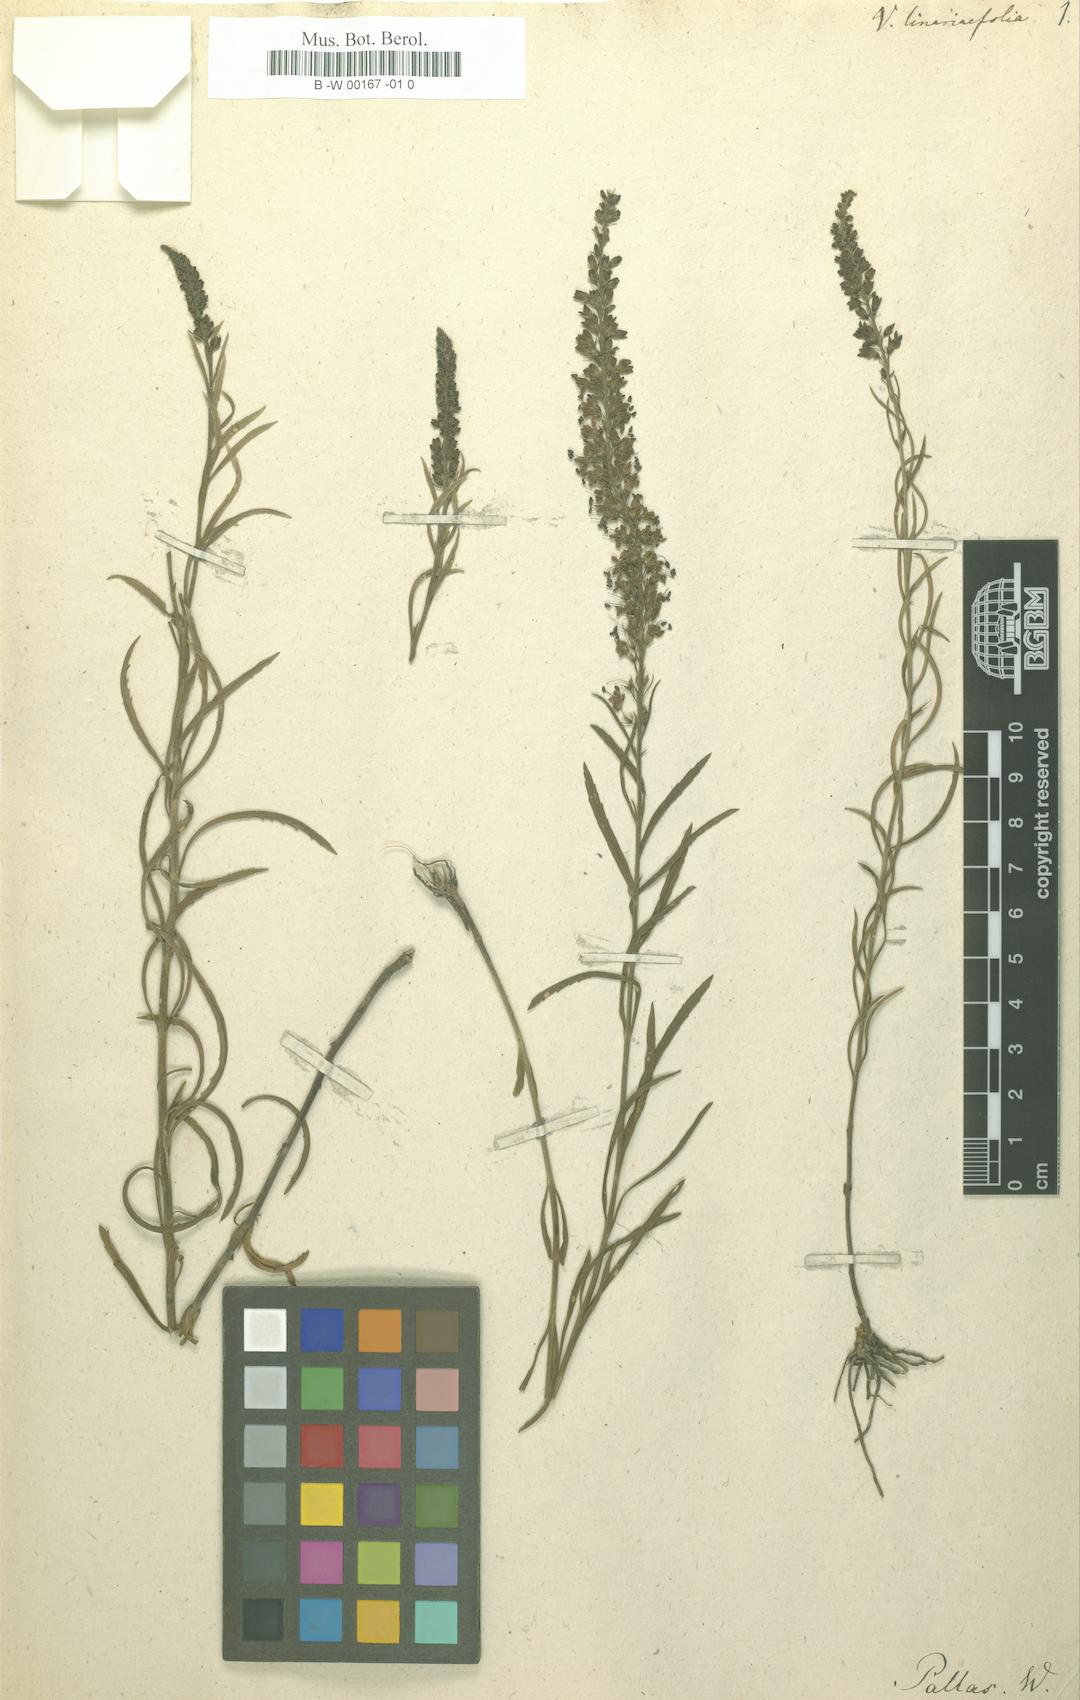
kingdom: Plantae
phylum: Tracheophyta
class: Magnoliopsida
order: Lamiales
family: Plantaginaceae
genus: Veronica
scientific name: Veronica linariifolia
